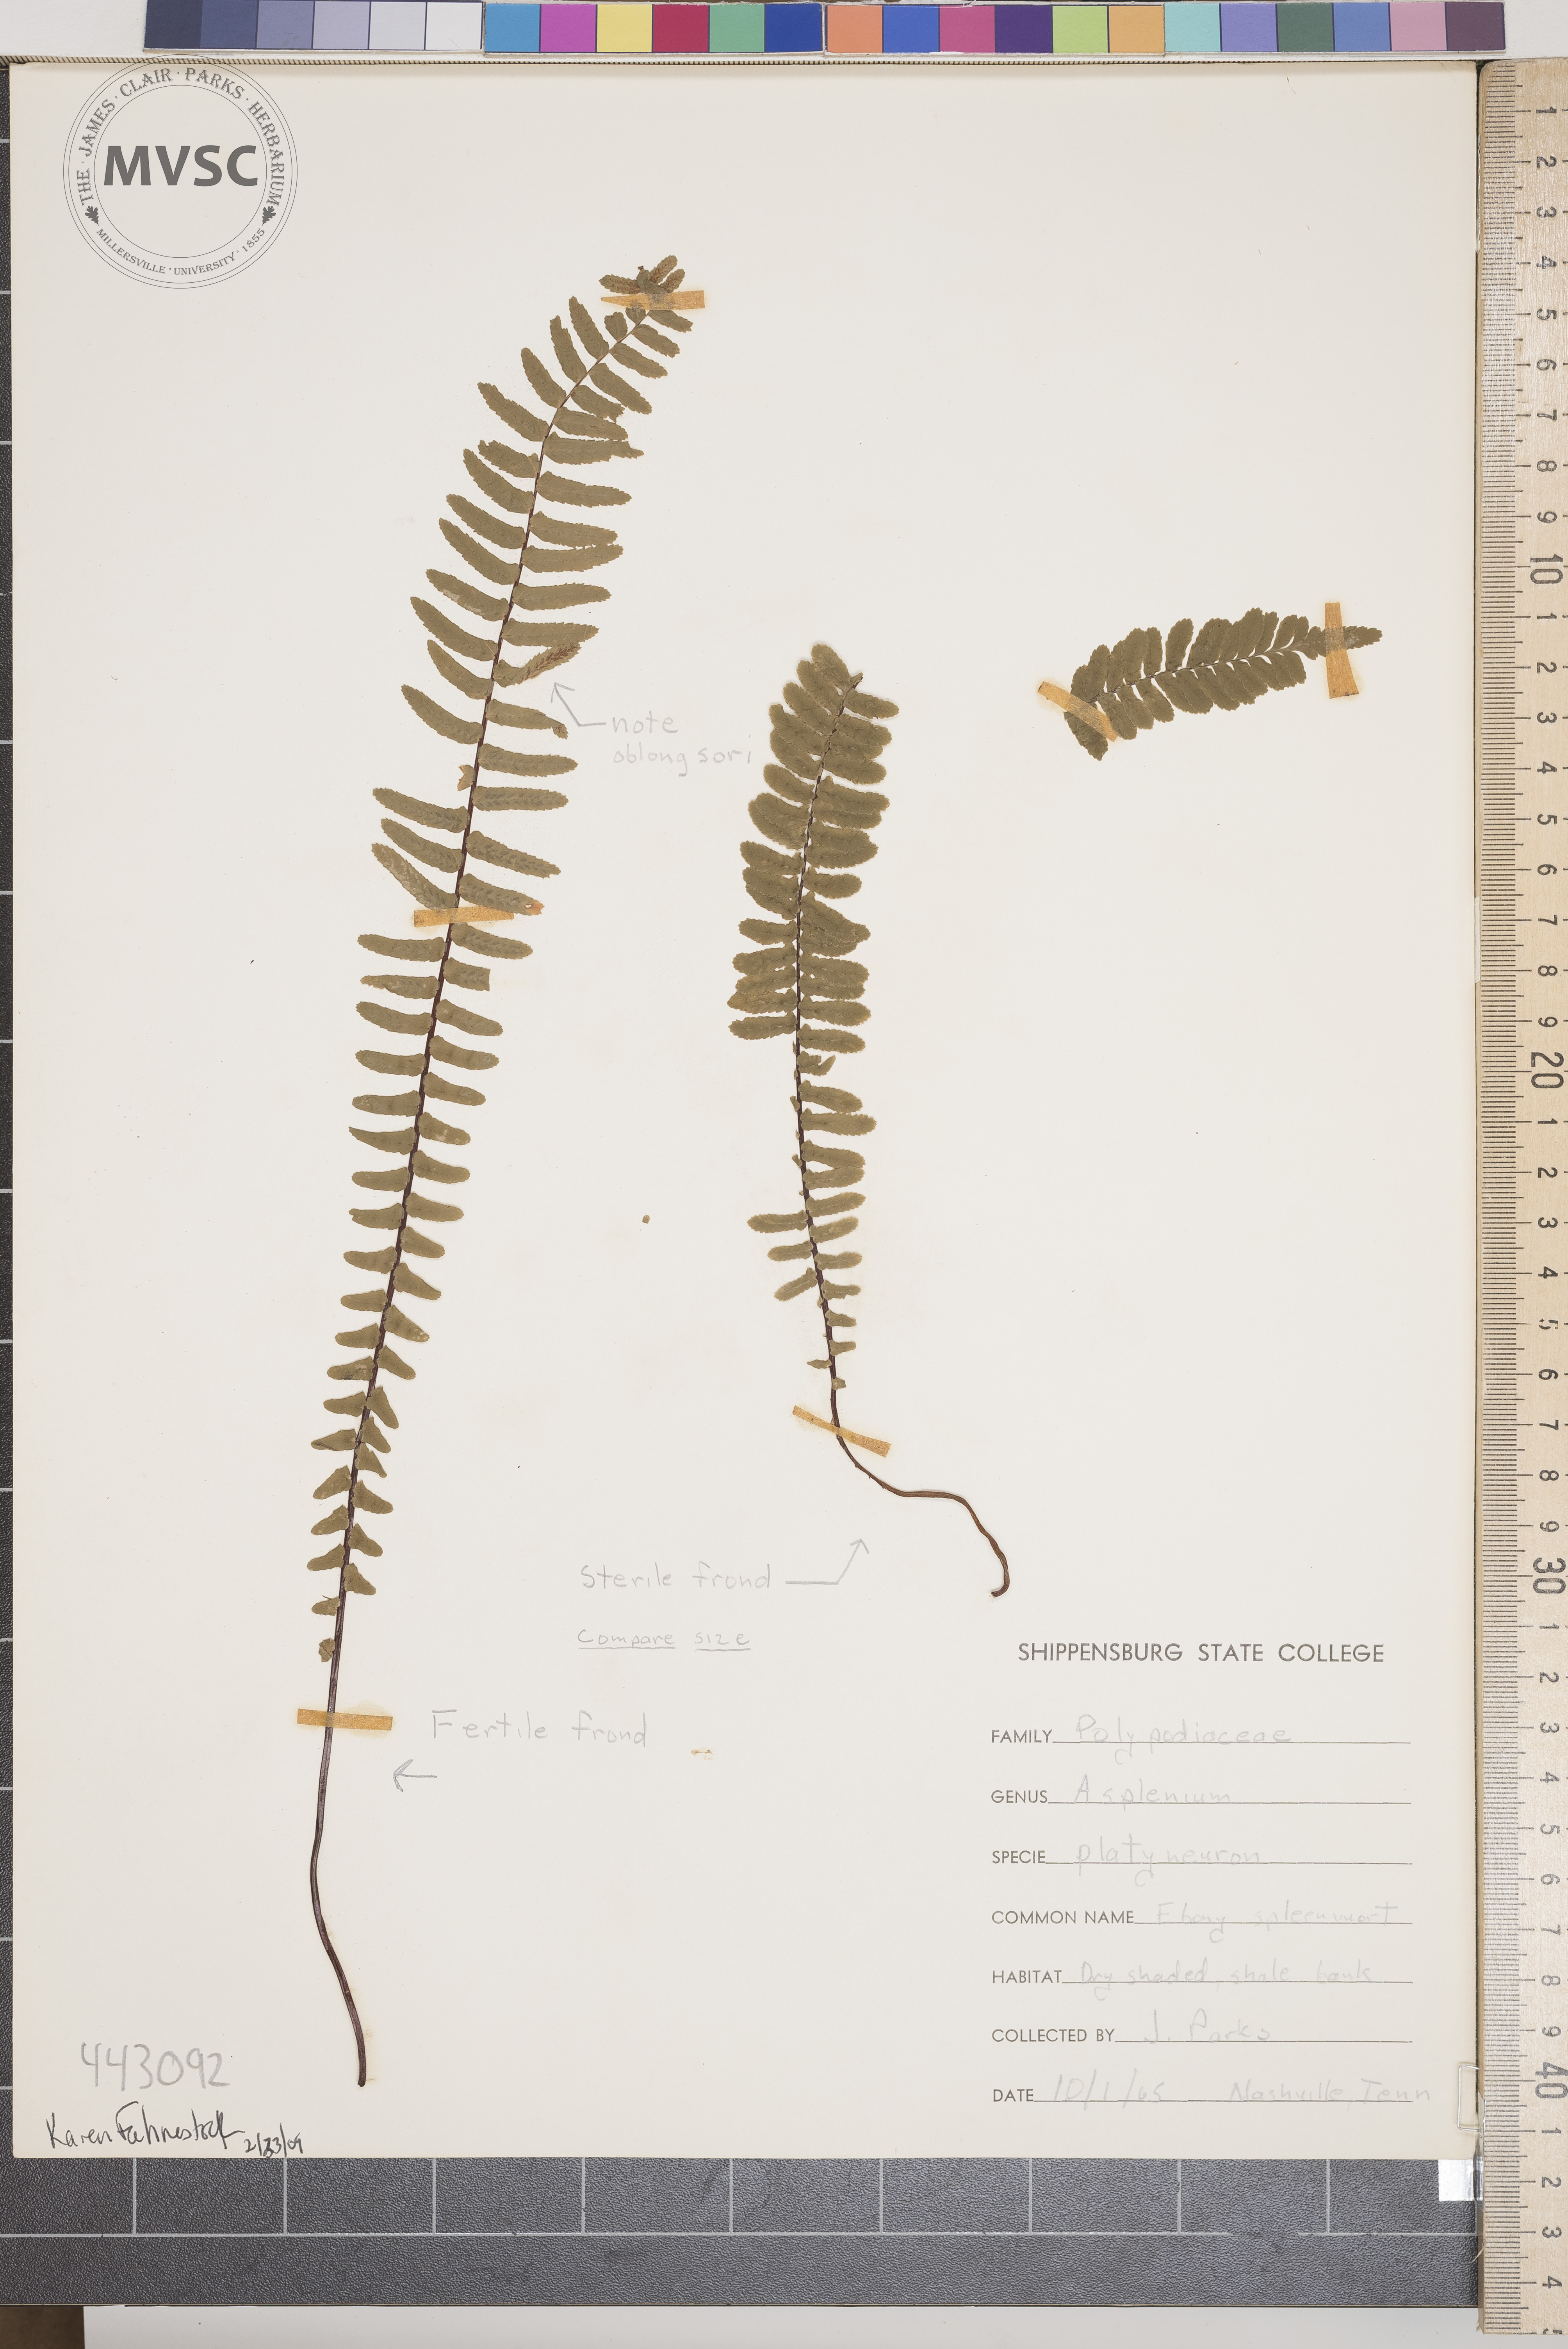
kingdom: Plantae
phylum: Tracheophyta
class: Polypodiopsida
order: Polypodiales
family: Aspleniaceae
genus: Asplenium
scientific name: Asplenium platyneuron
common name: Ebony Spleenwort
